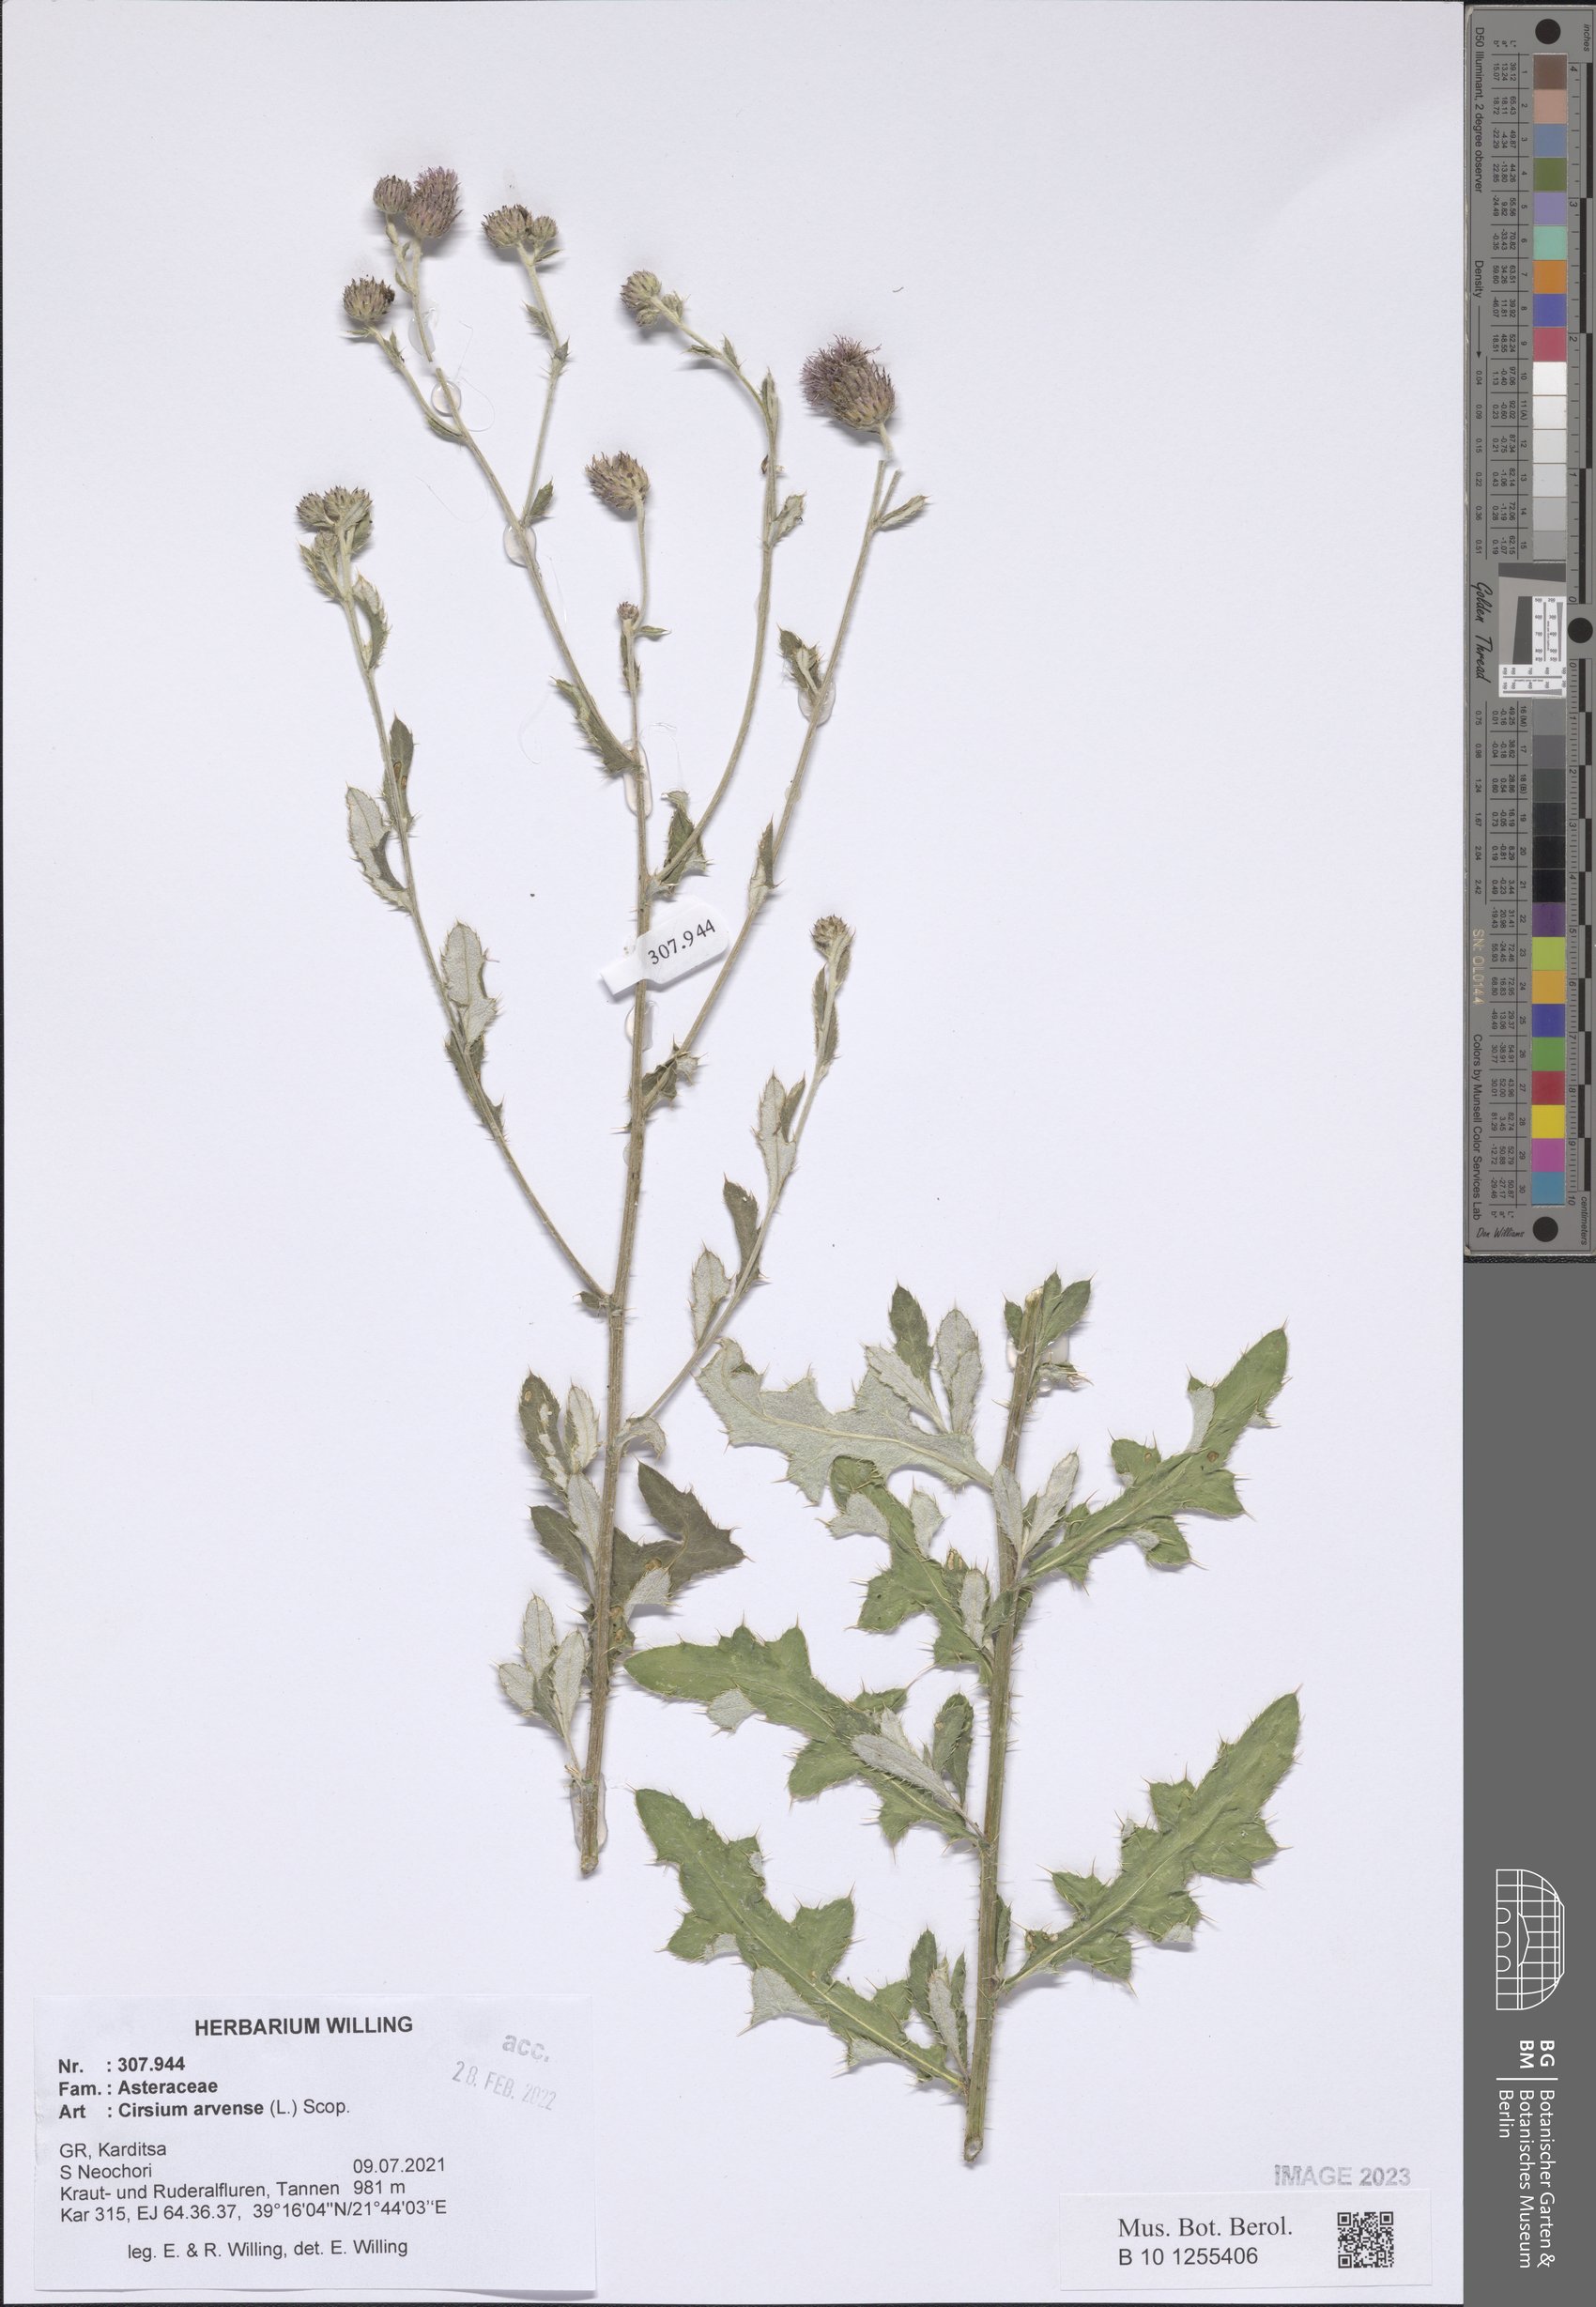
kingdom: Plantae
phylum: Tracheophyta
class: Magnoliopsida
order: Asterales
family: Asteraceae
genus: Cirsium
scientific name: Cirsium arvense
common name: Creeping thistle
